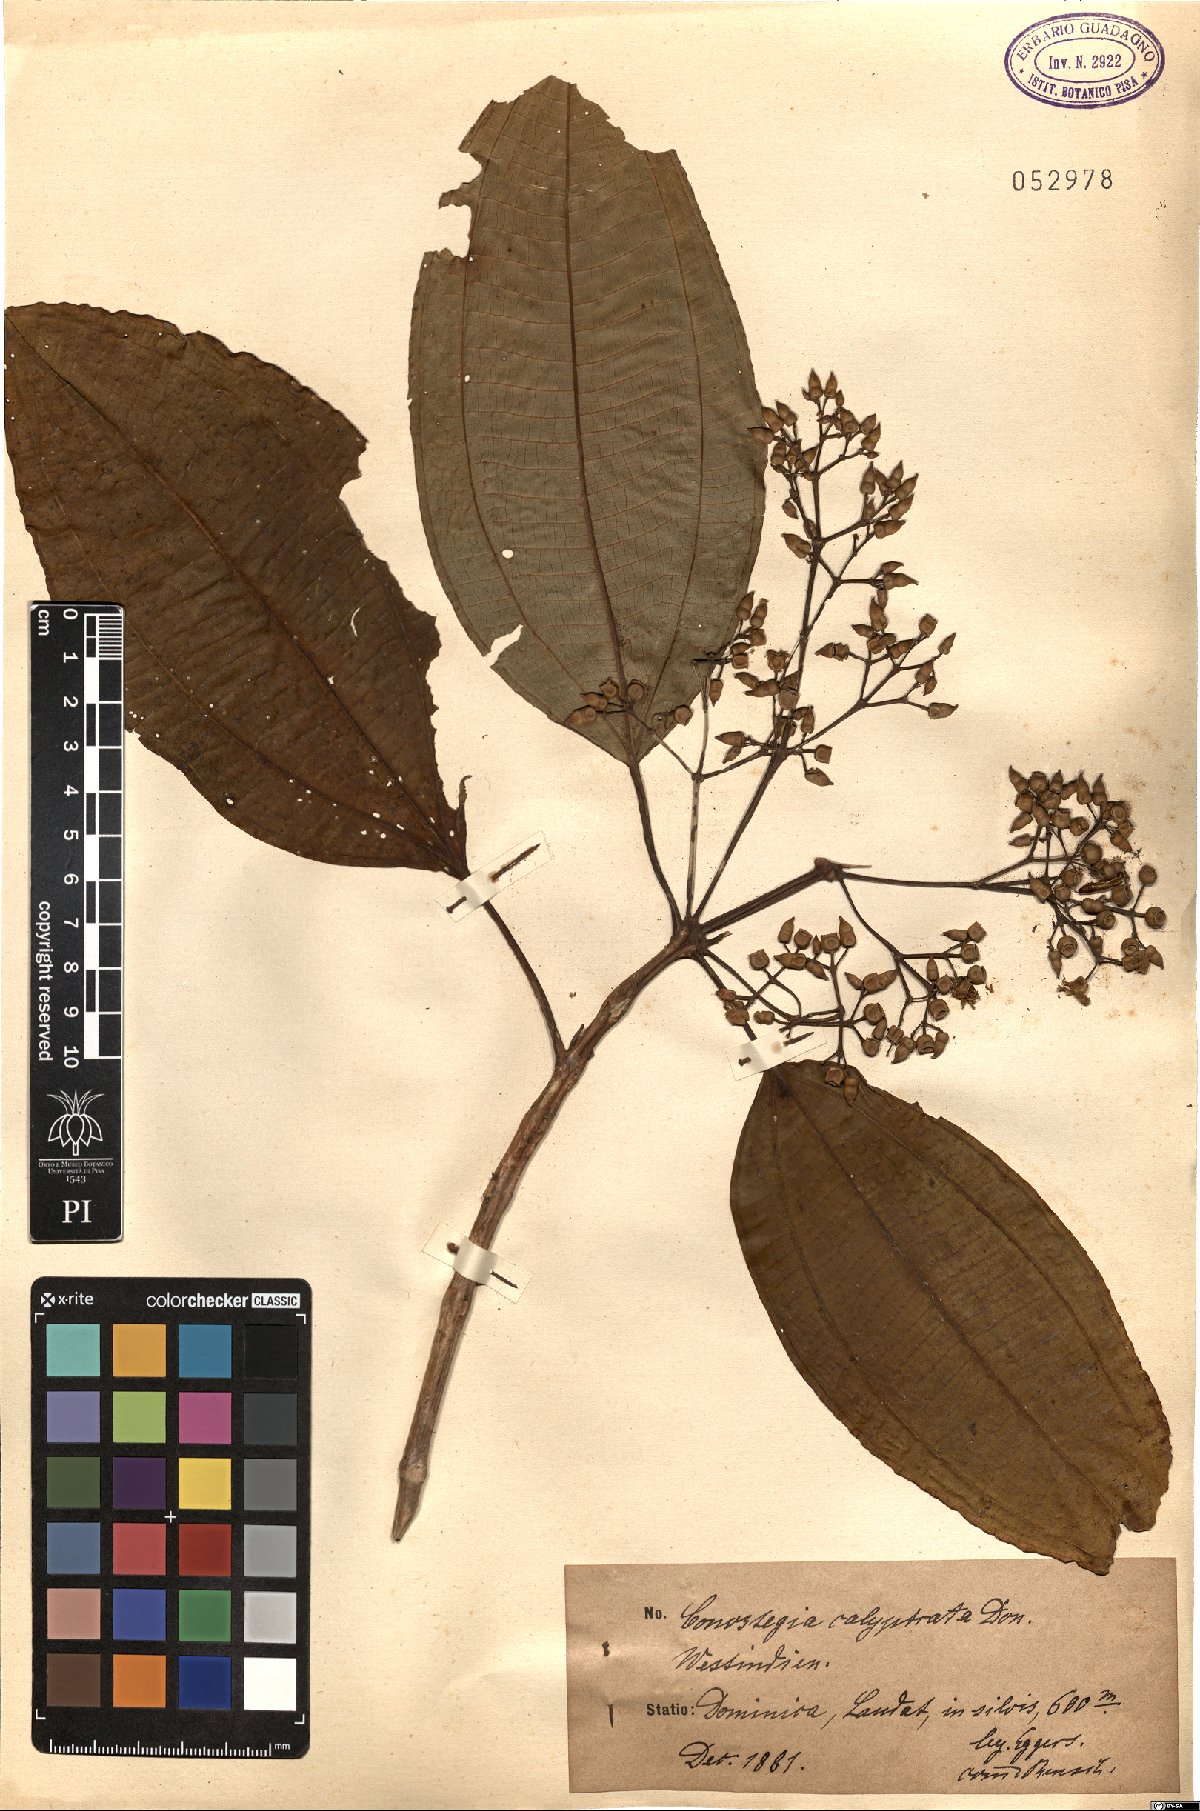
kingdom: Plantae
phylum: Tracheophyta
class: Magnoliopsida
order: Myrtales
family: Melastomataceae
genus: Miconia
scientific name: Miconia cooperi
